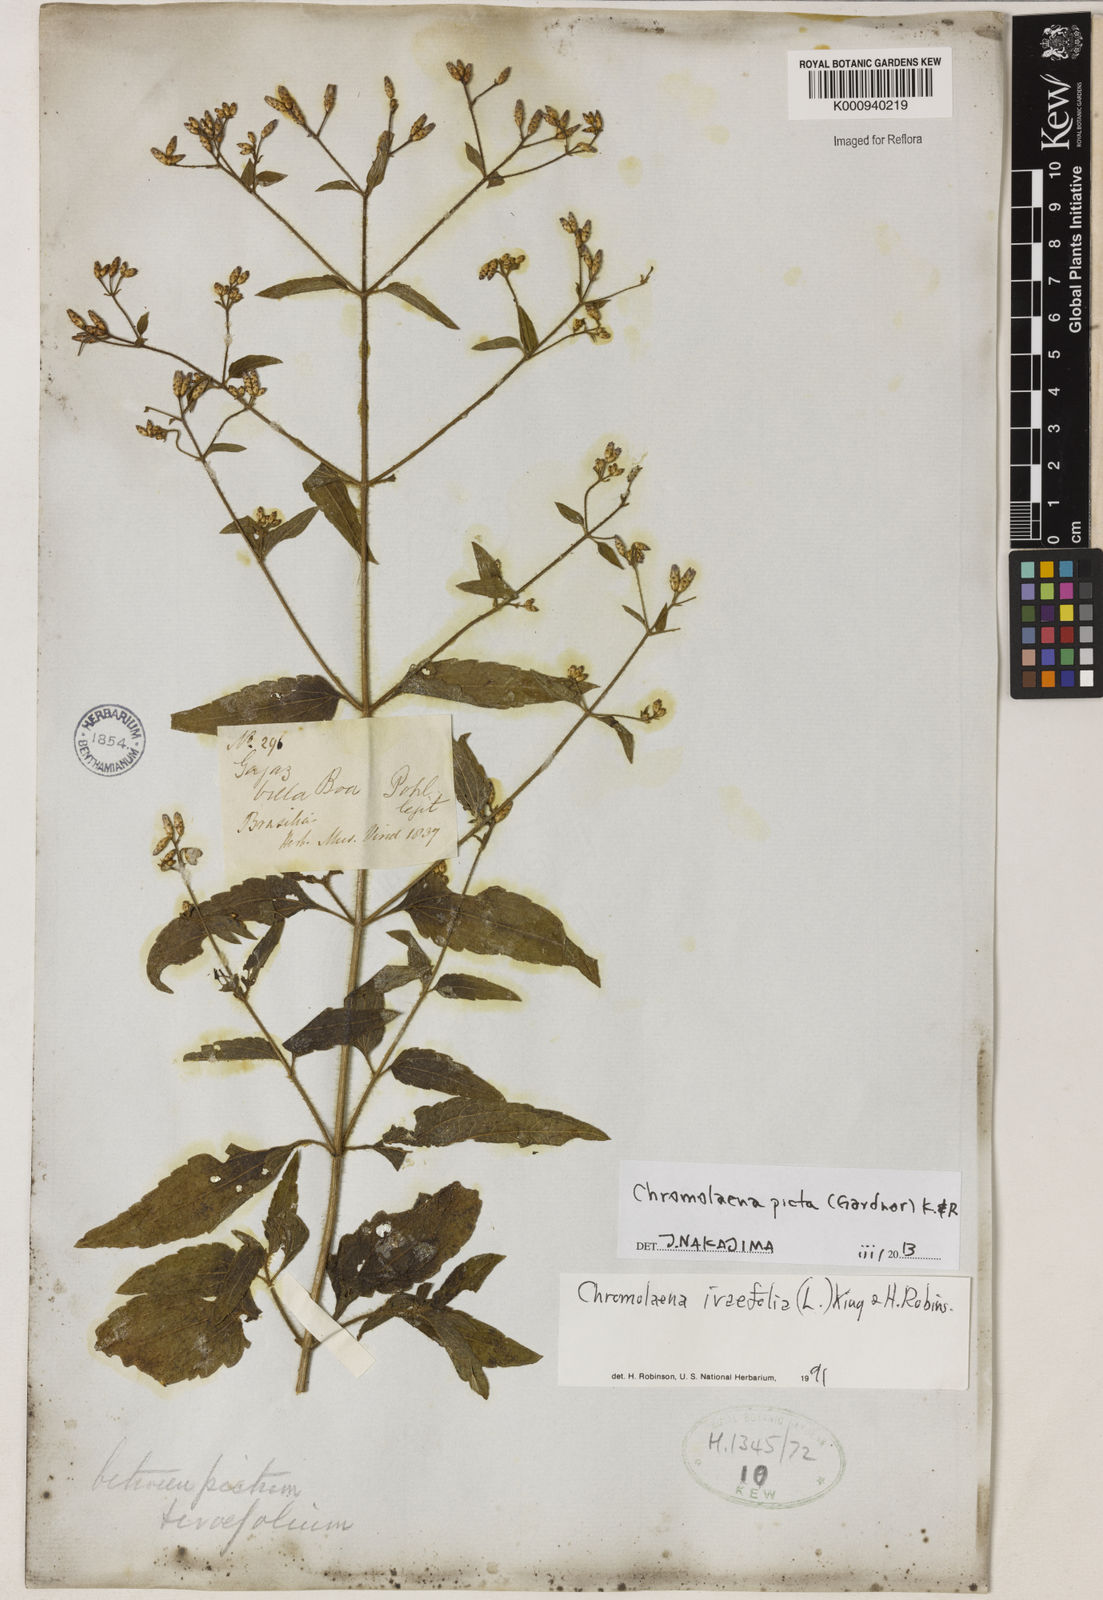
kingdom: Plantae
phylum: Tracheophyta
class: Magnoliopsida
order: Asterales
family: Asteraceae
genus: Chromolaena
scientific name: Chromolaena picta
